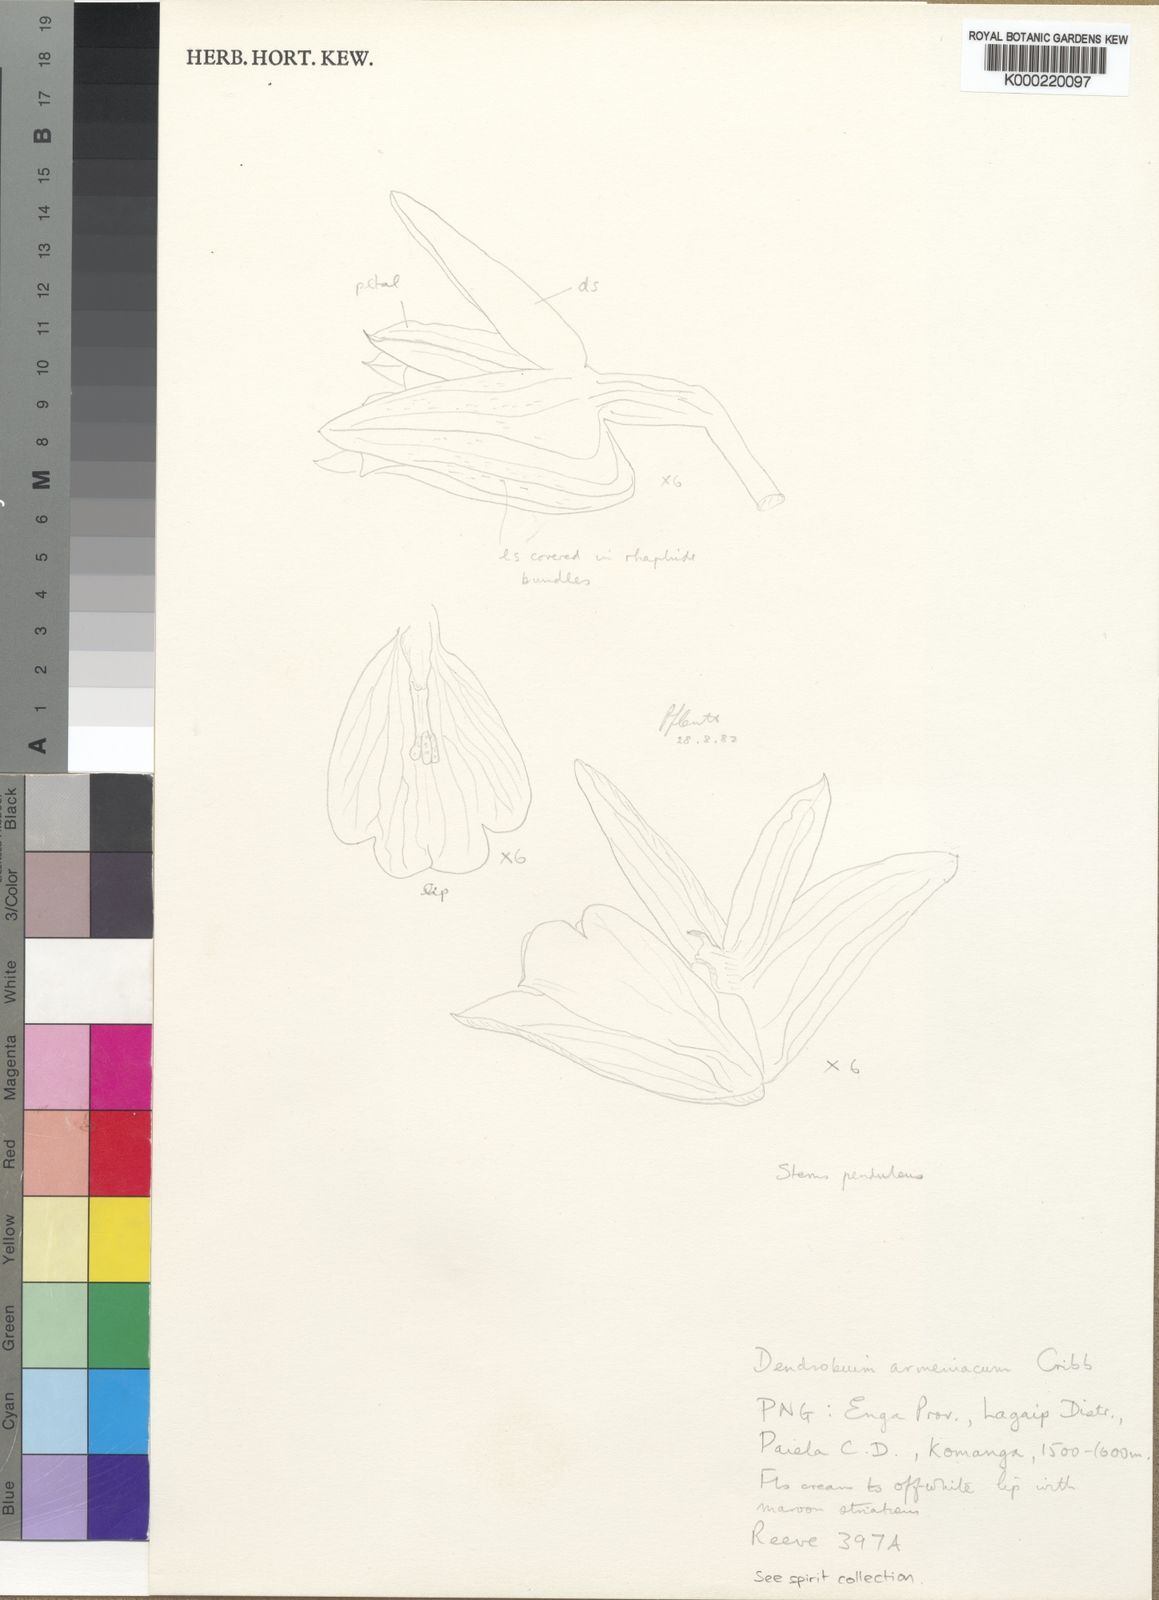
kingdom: Plantae
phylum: Tracheophyta
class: Liliopsida
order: Asparagales
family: Orchidaceae
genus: Dendrobium
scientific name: Dendrobium armeniacum
